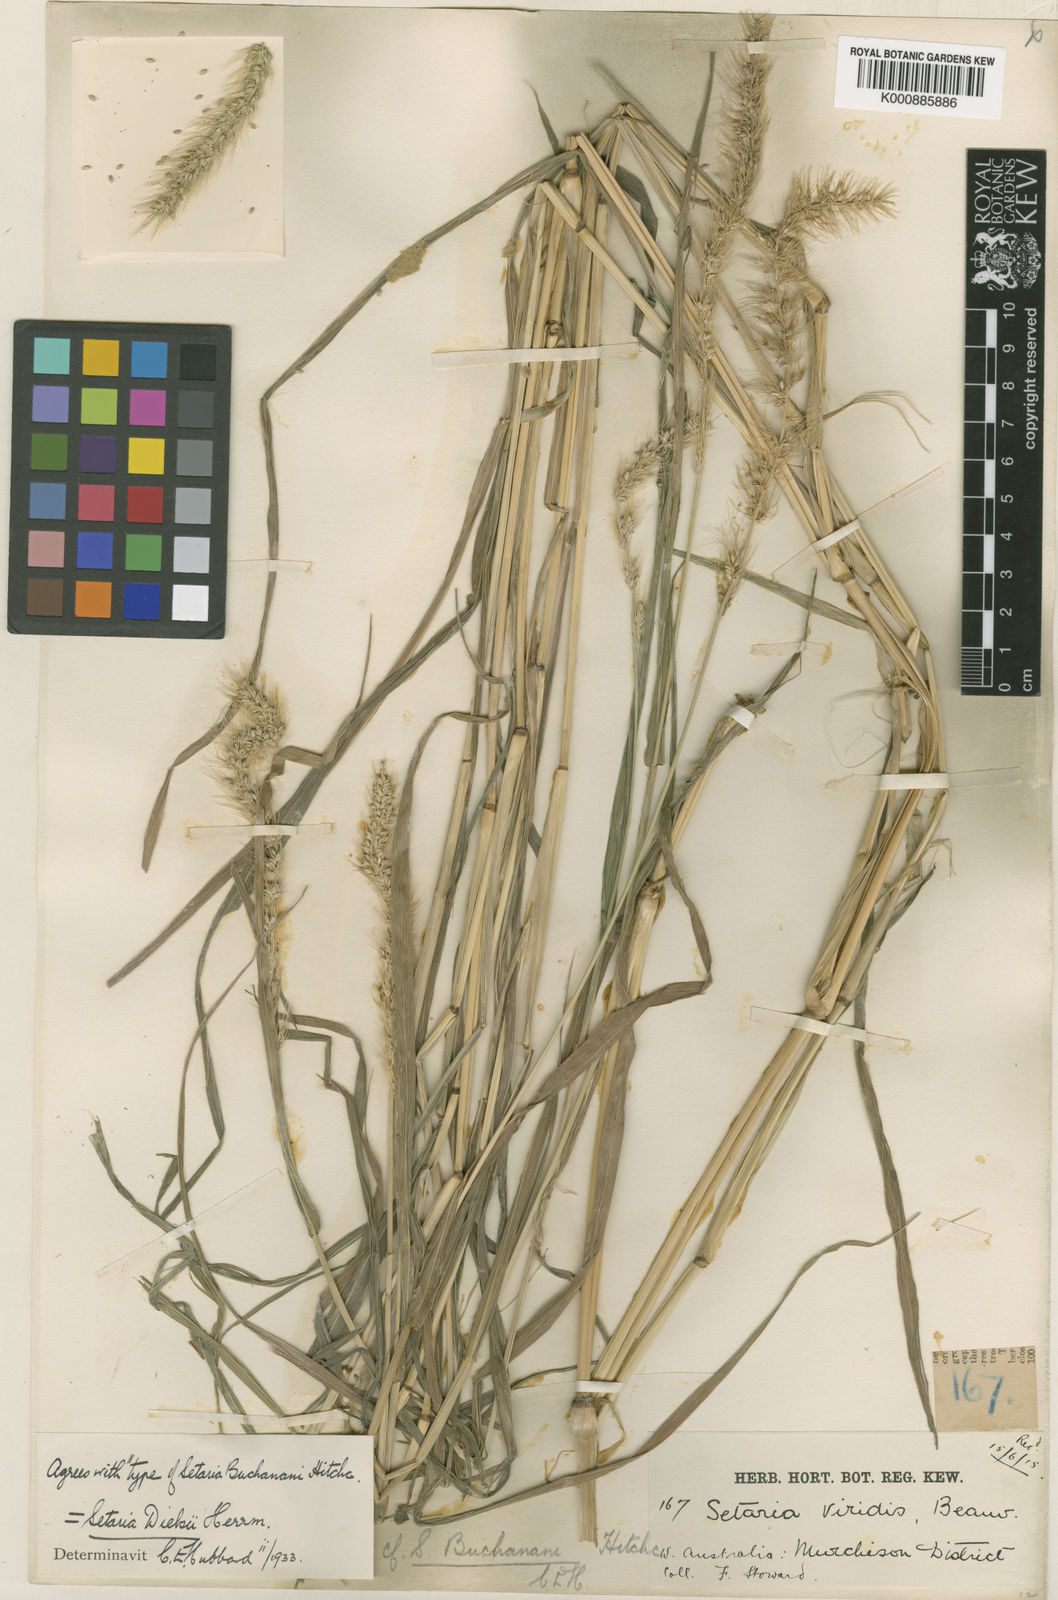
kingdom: Plantae
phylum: Tracheophyta
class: Liliopsida
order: Poales
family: Poaceae
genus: Setaria
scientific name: Setaria dielsii
